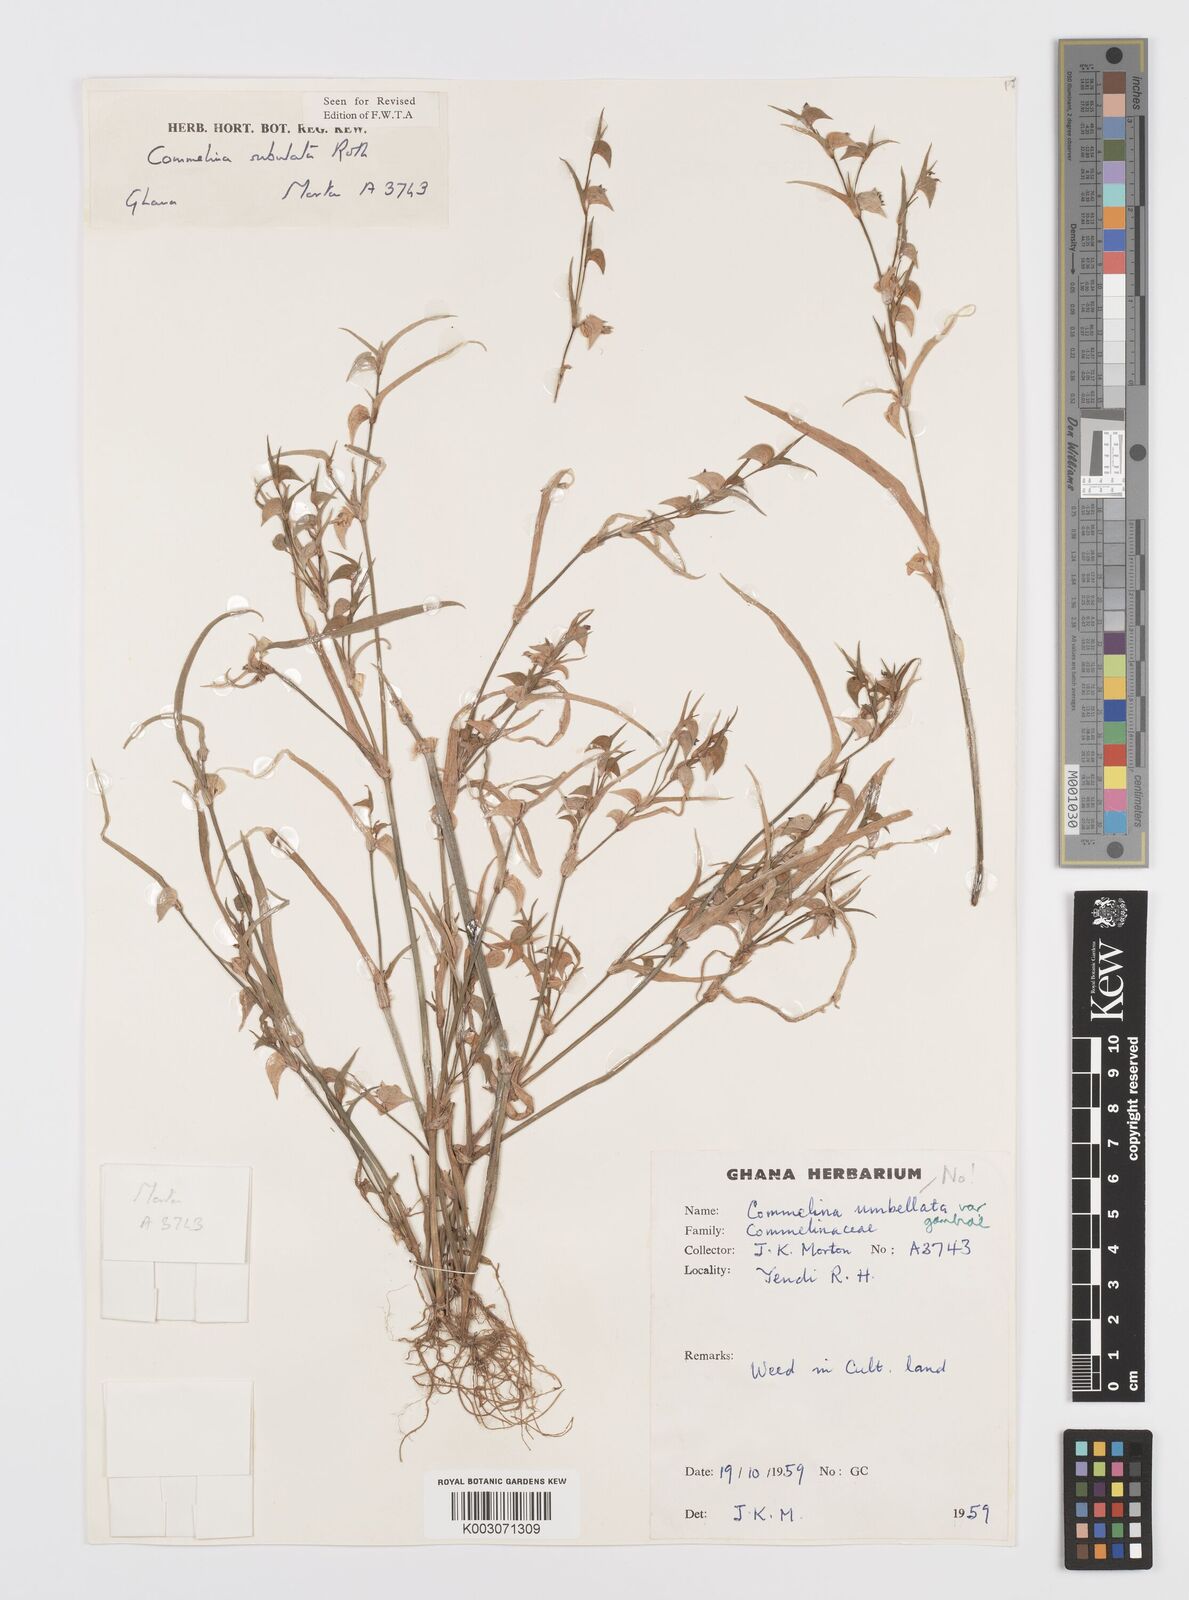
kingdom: Plantae
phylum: Tracheophyta
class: Liliopsida
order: Commelinales
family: Commelinaceae
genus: Commelina
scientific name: Commelina subulata
